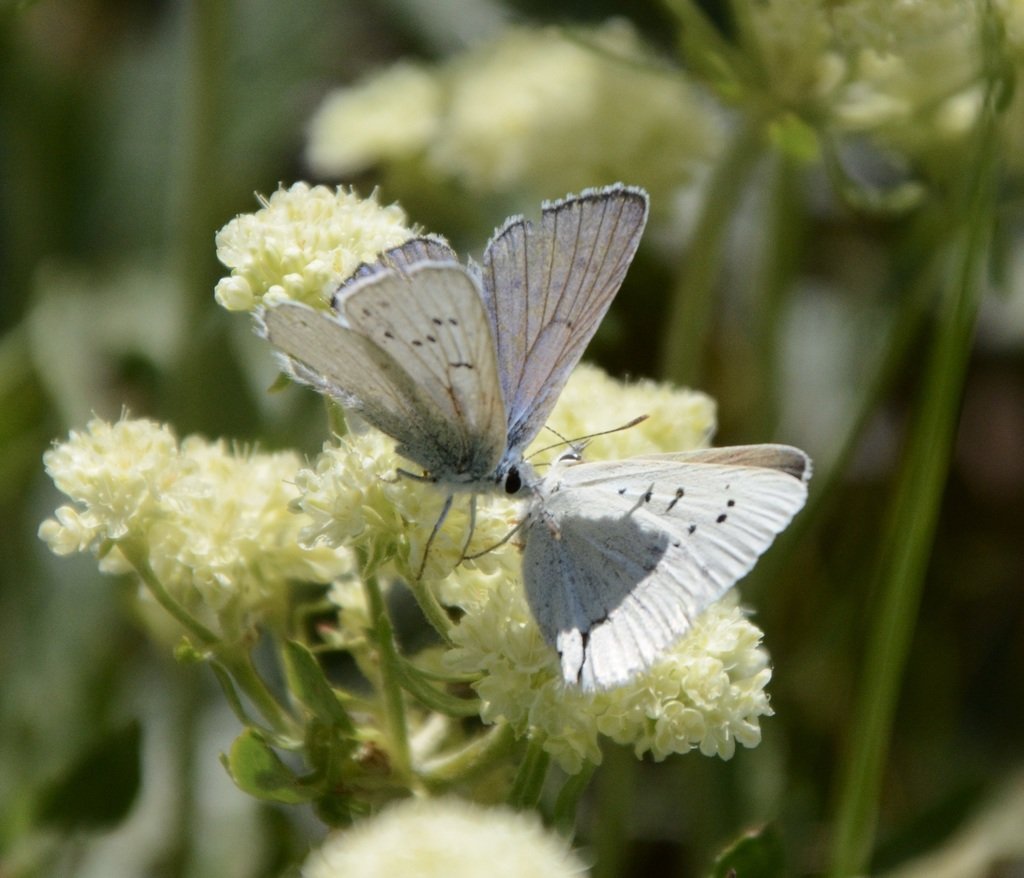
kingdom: Animalia
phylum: Arthropoda
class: Insecta
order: Lepidoptera
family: Lycaenidae
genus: Lycaena
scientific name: Lycaena heteronea
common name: Blue Copper
